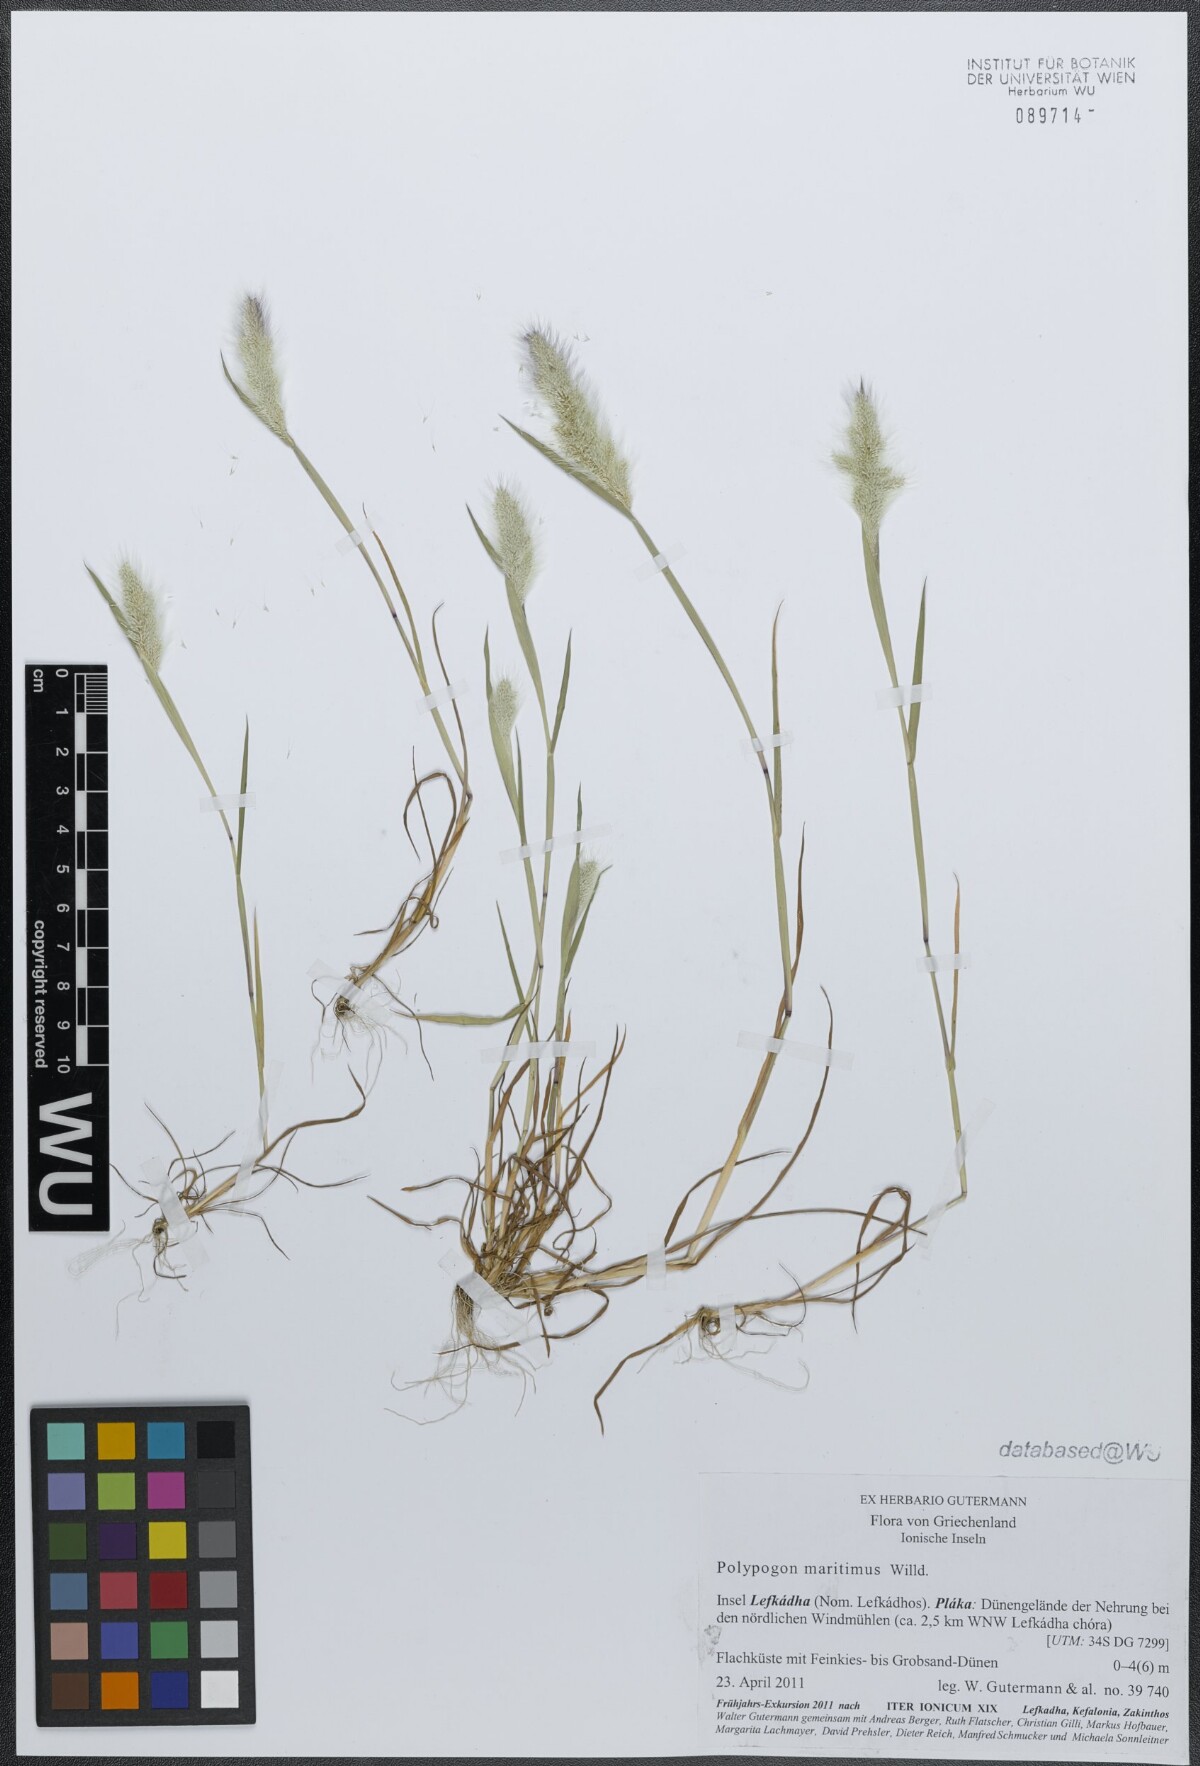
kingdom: Plantae
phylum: Tracheophyta
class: Liliopsida
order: Poales
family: Poaceae
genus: Polypogon
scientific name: Polypogon maritimus
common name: Mediterranean rabbitsfoot grass
